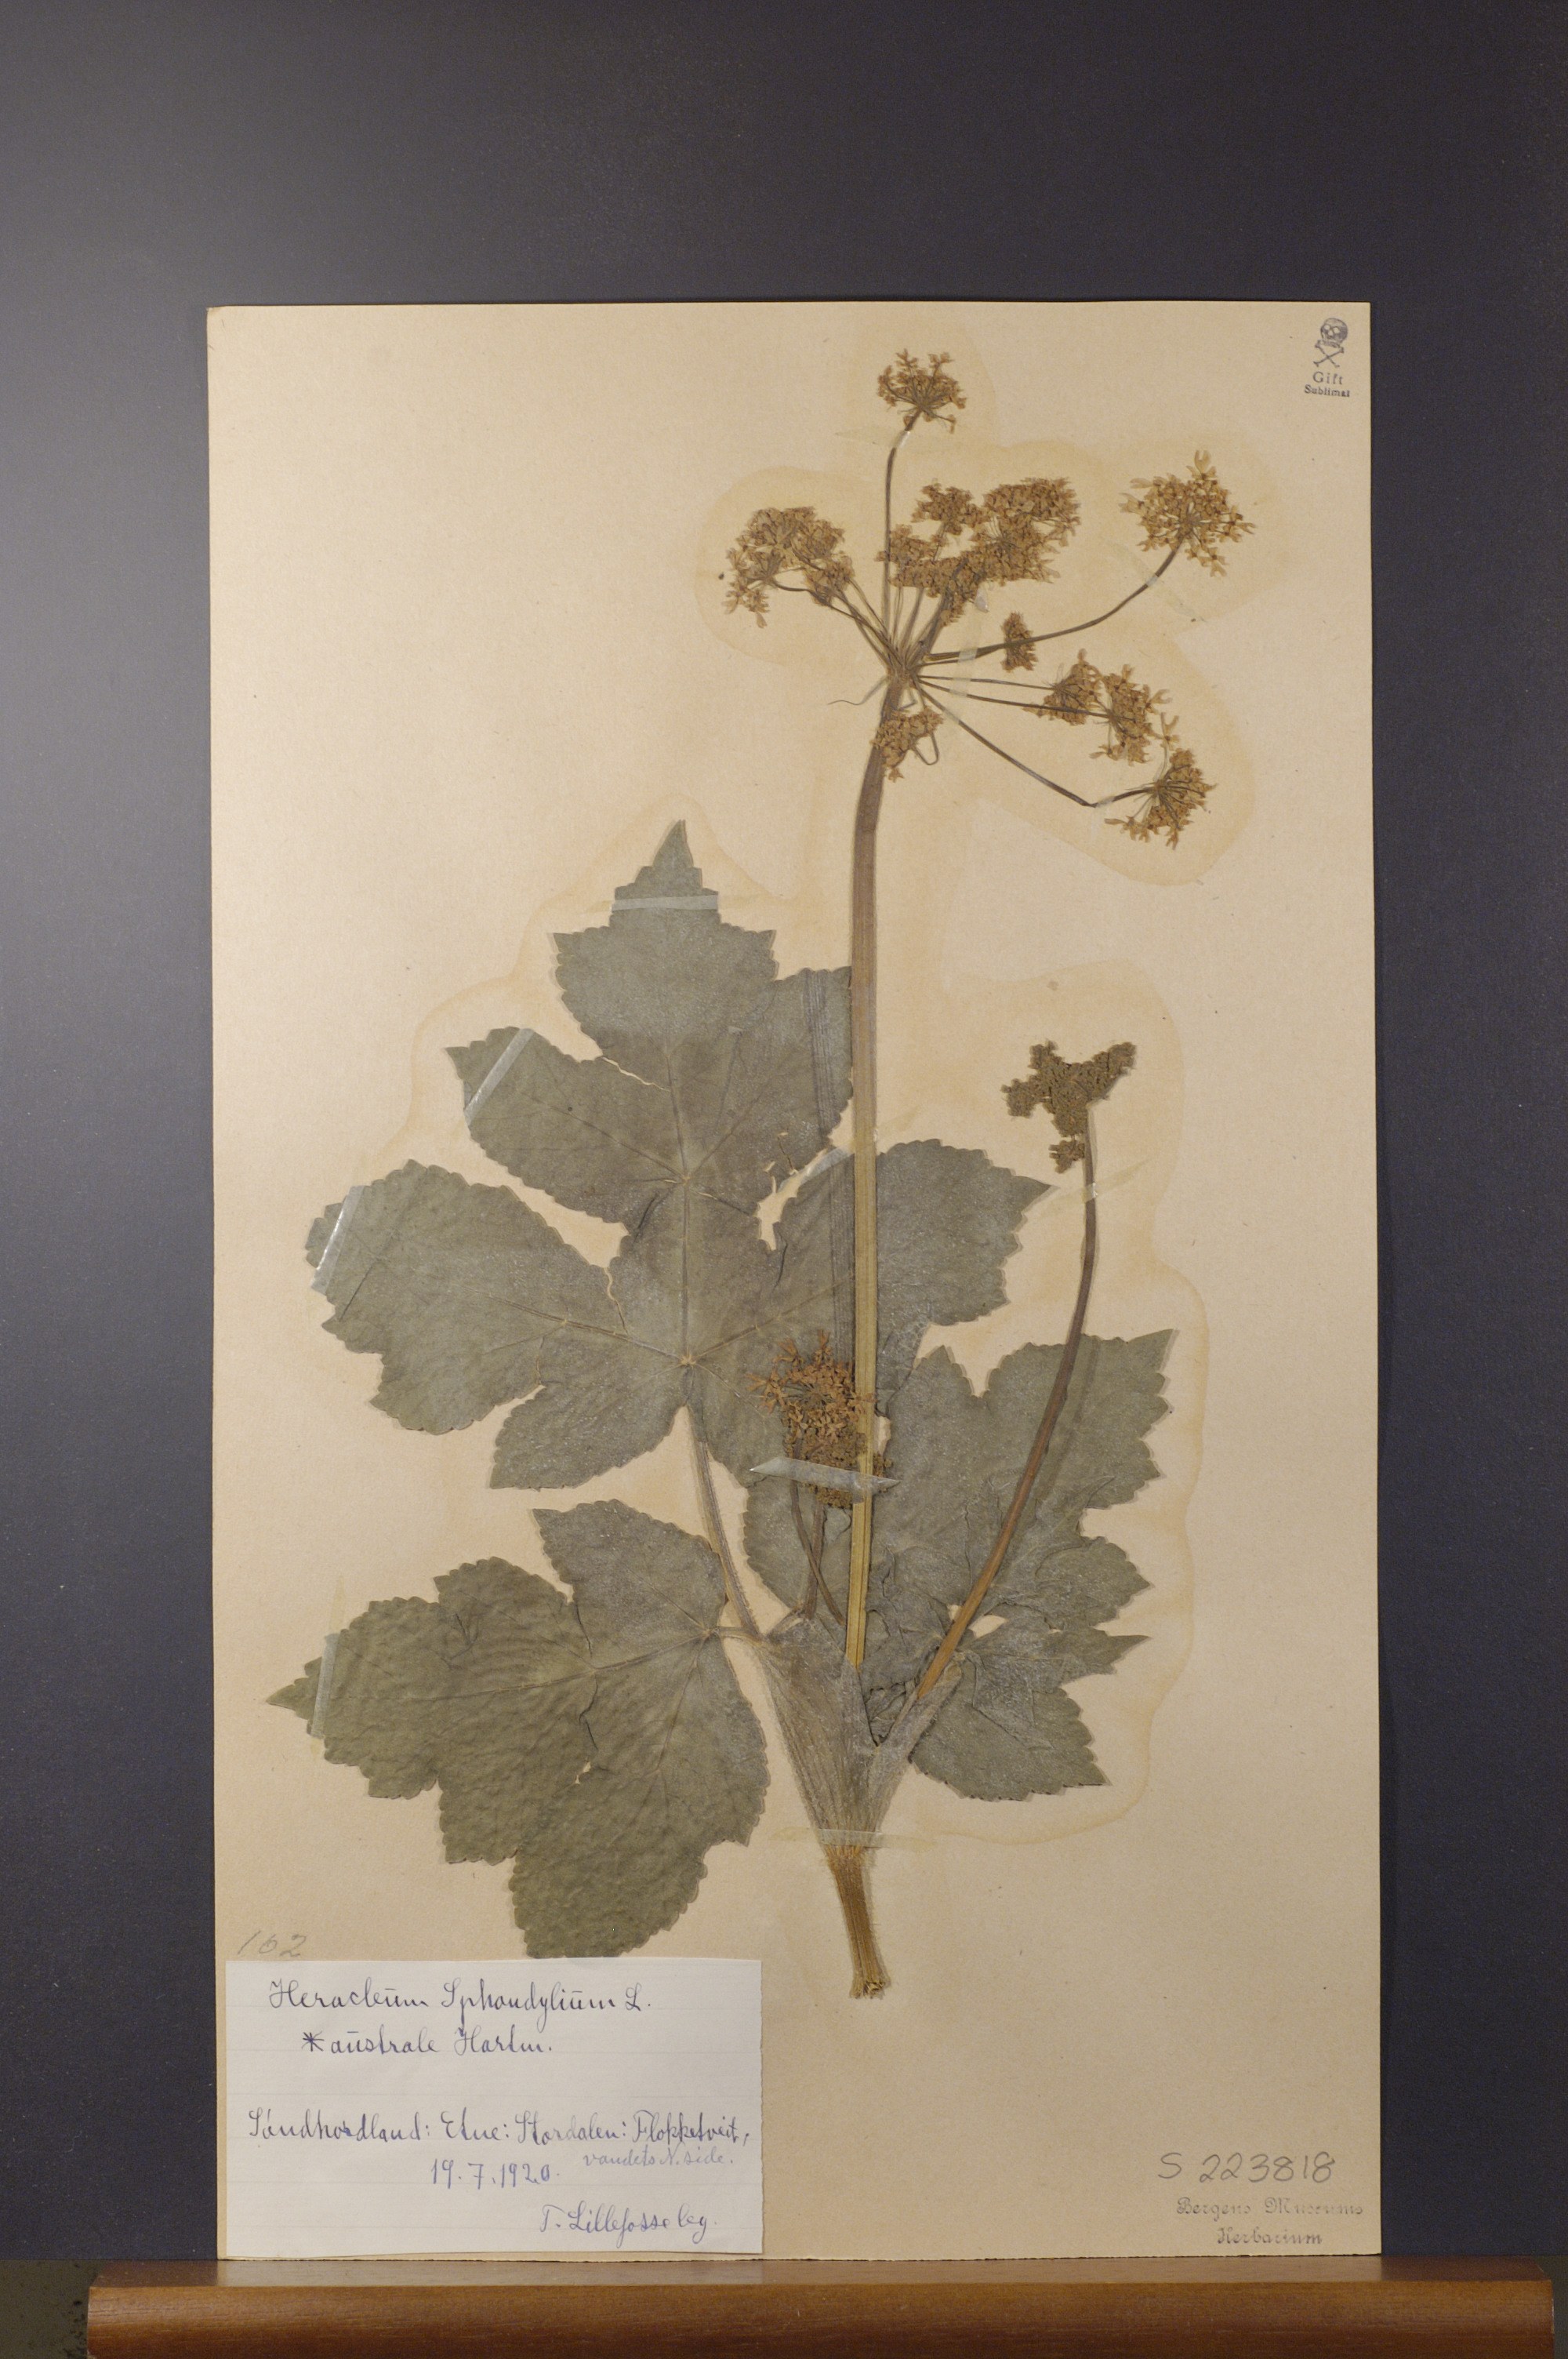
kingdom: Plantae
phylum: Tracheophyta
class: Magnoliopsida
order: Apiales
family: Apiaceae
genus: Heracleum
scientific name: Heracleum sphondylium
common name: Hogweed
